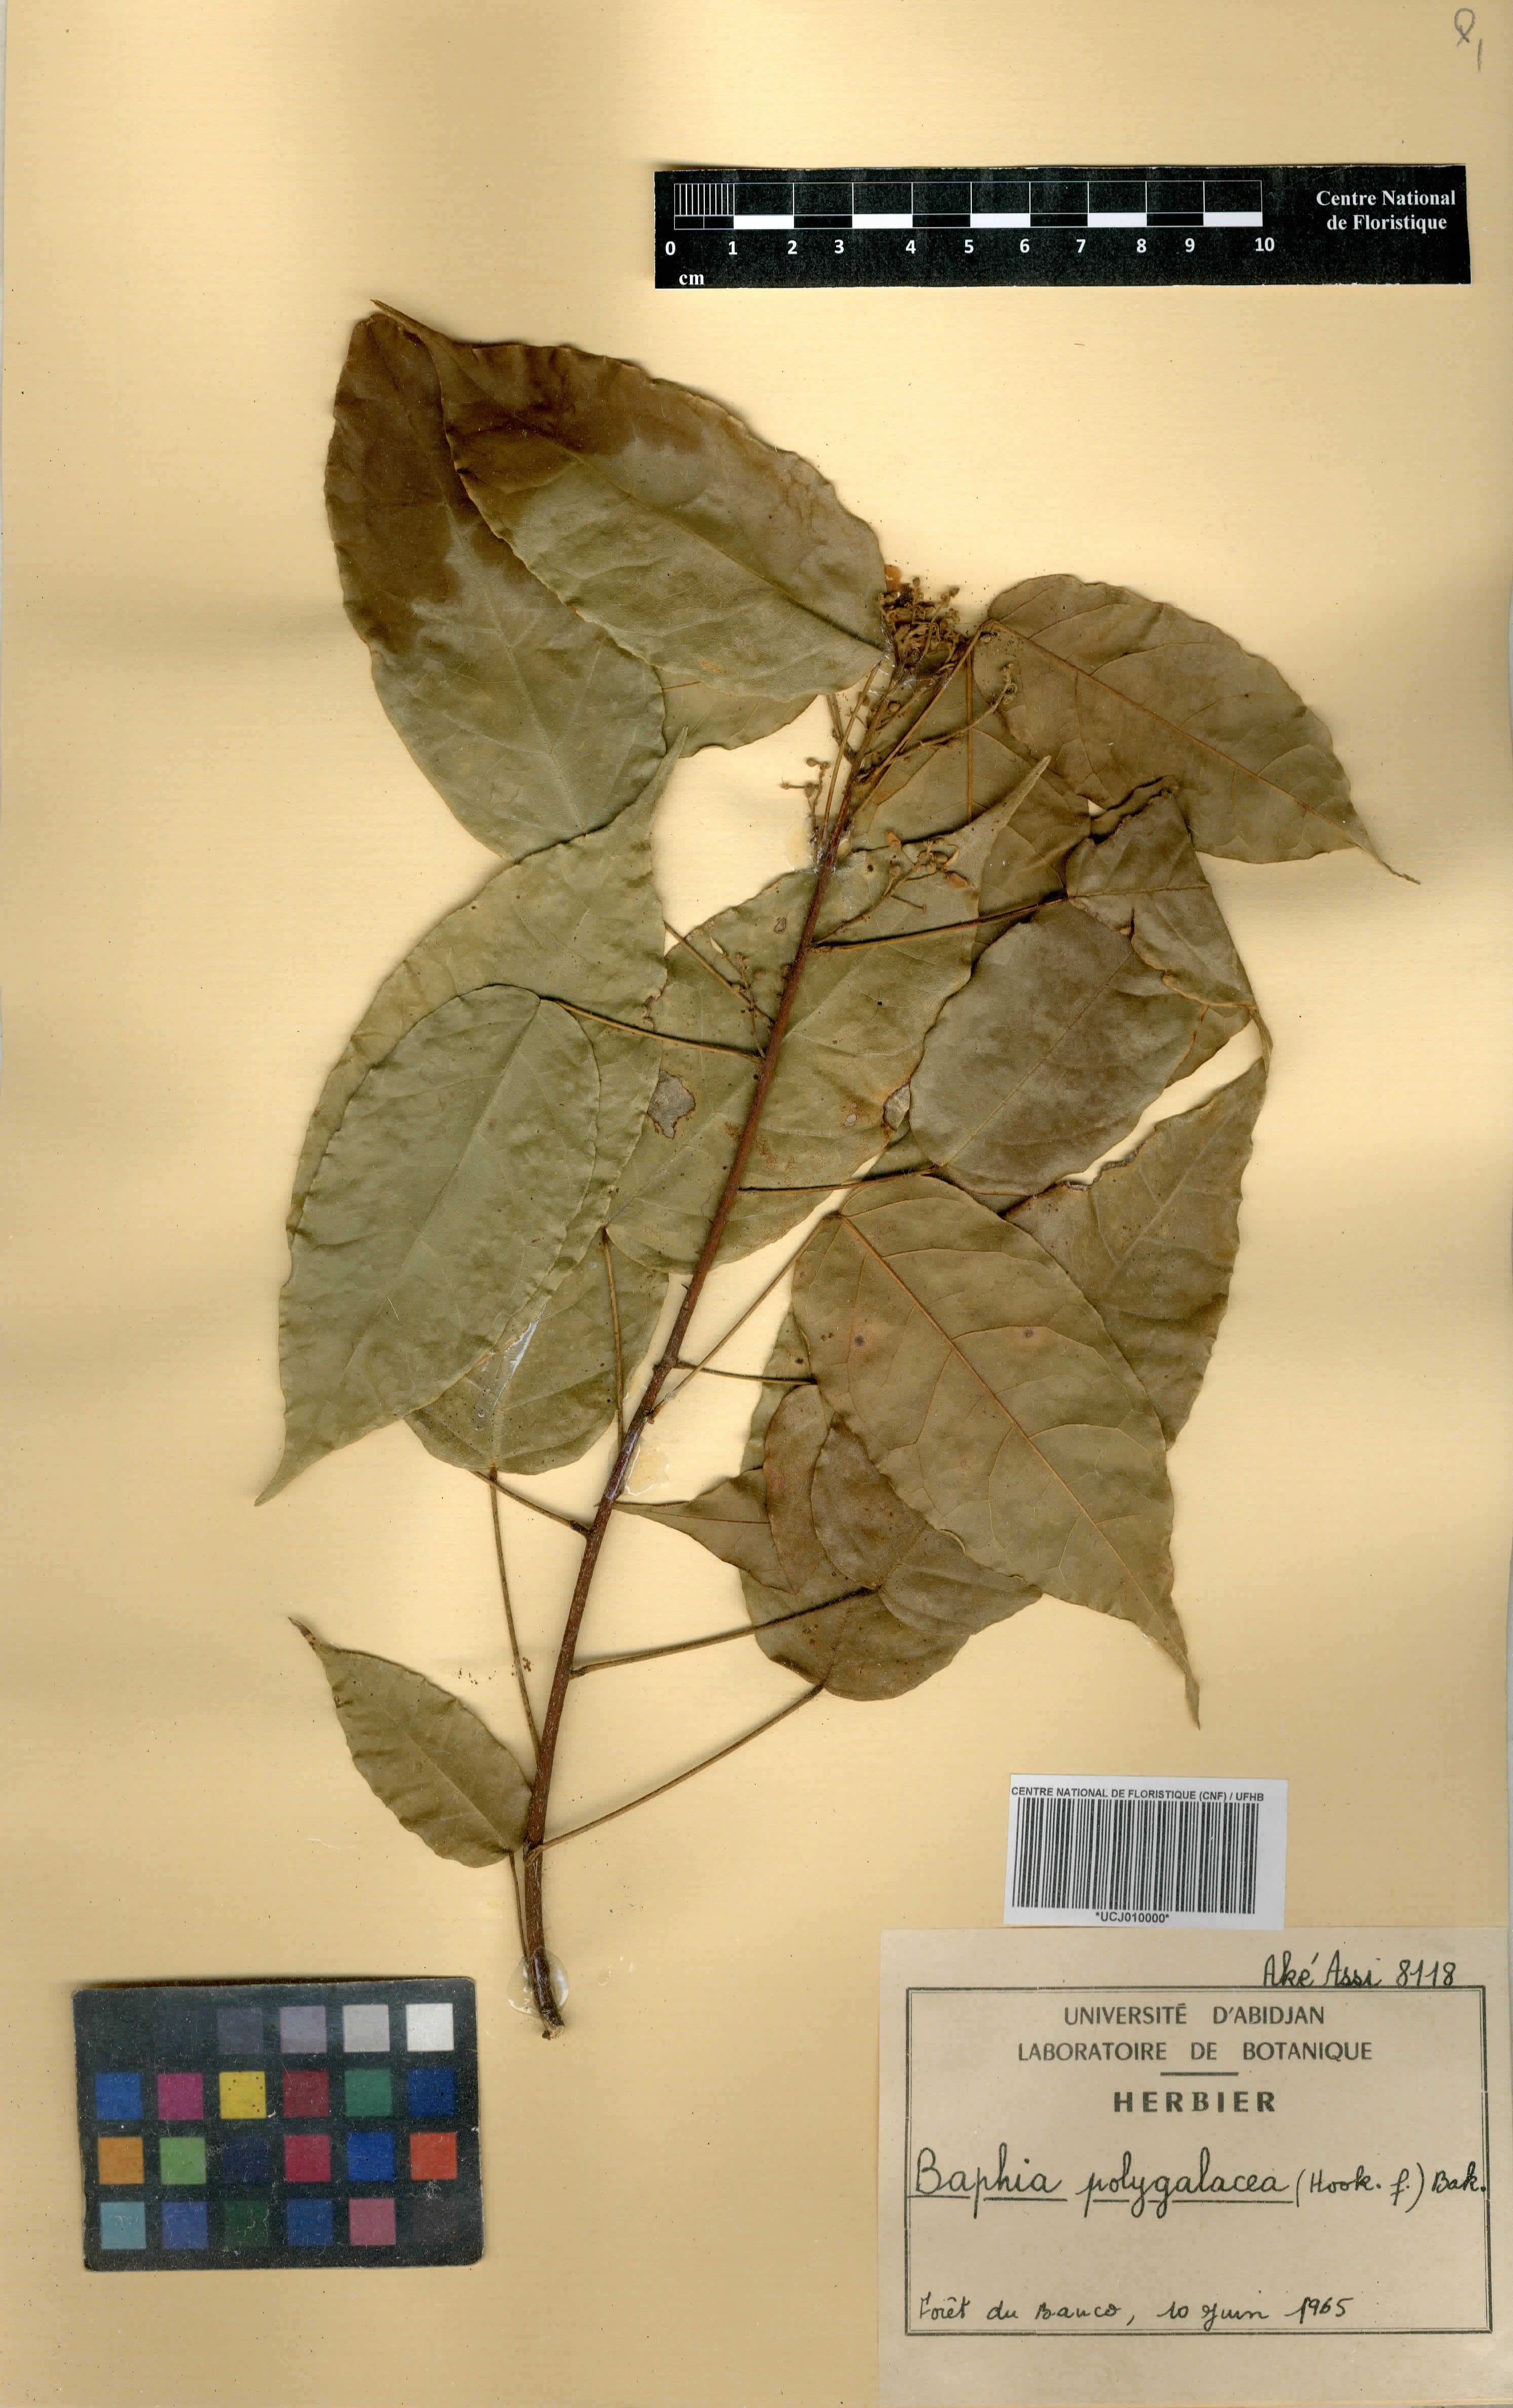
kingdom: Plantae
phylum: Tracheophyta
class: Magnoliopsida
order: Fabales
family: Fabaceae
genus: Baphia
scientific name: Baphia capparidifolia
